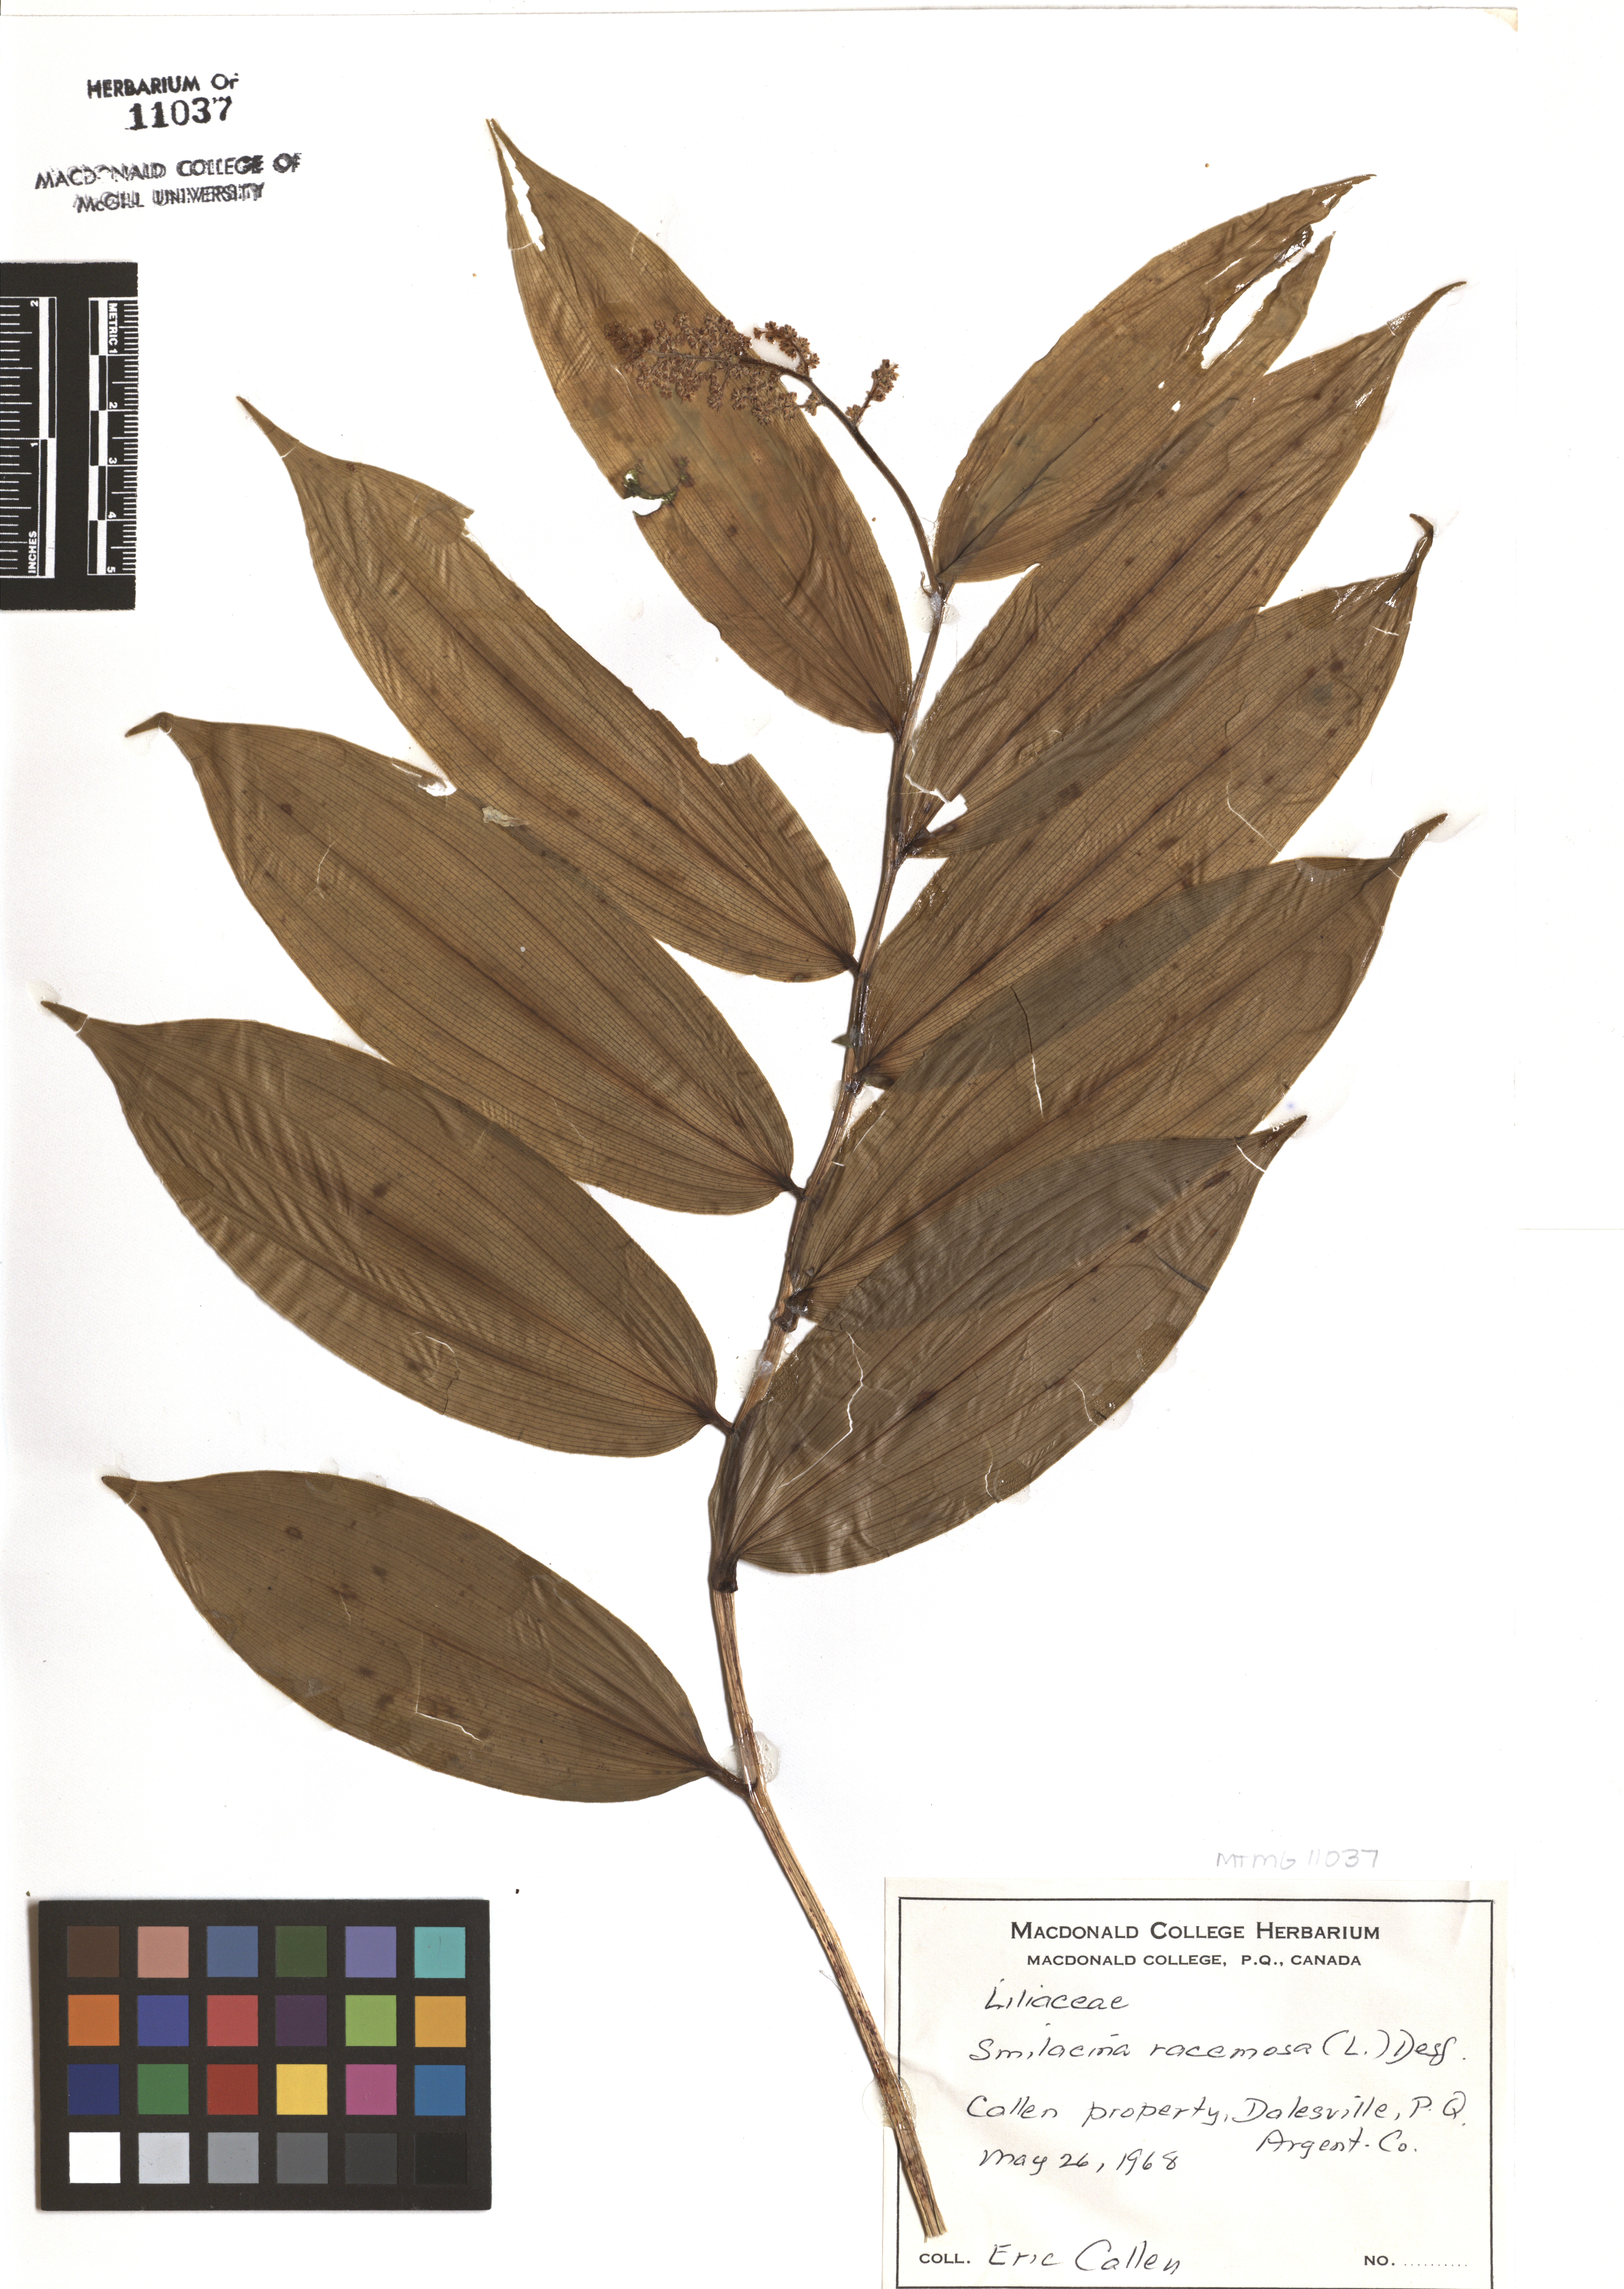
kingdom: Plantae
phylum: Tracheophyta
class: Liliopsida
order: Asparagales
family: Asparagaceae
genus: Maianthemum
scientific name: Maianthemum racemosum
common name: False spikenard
